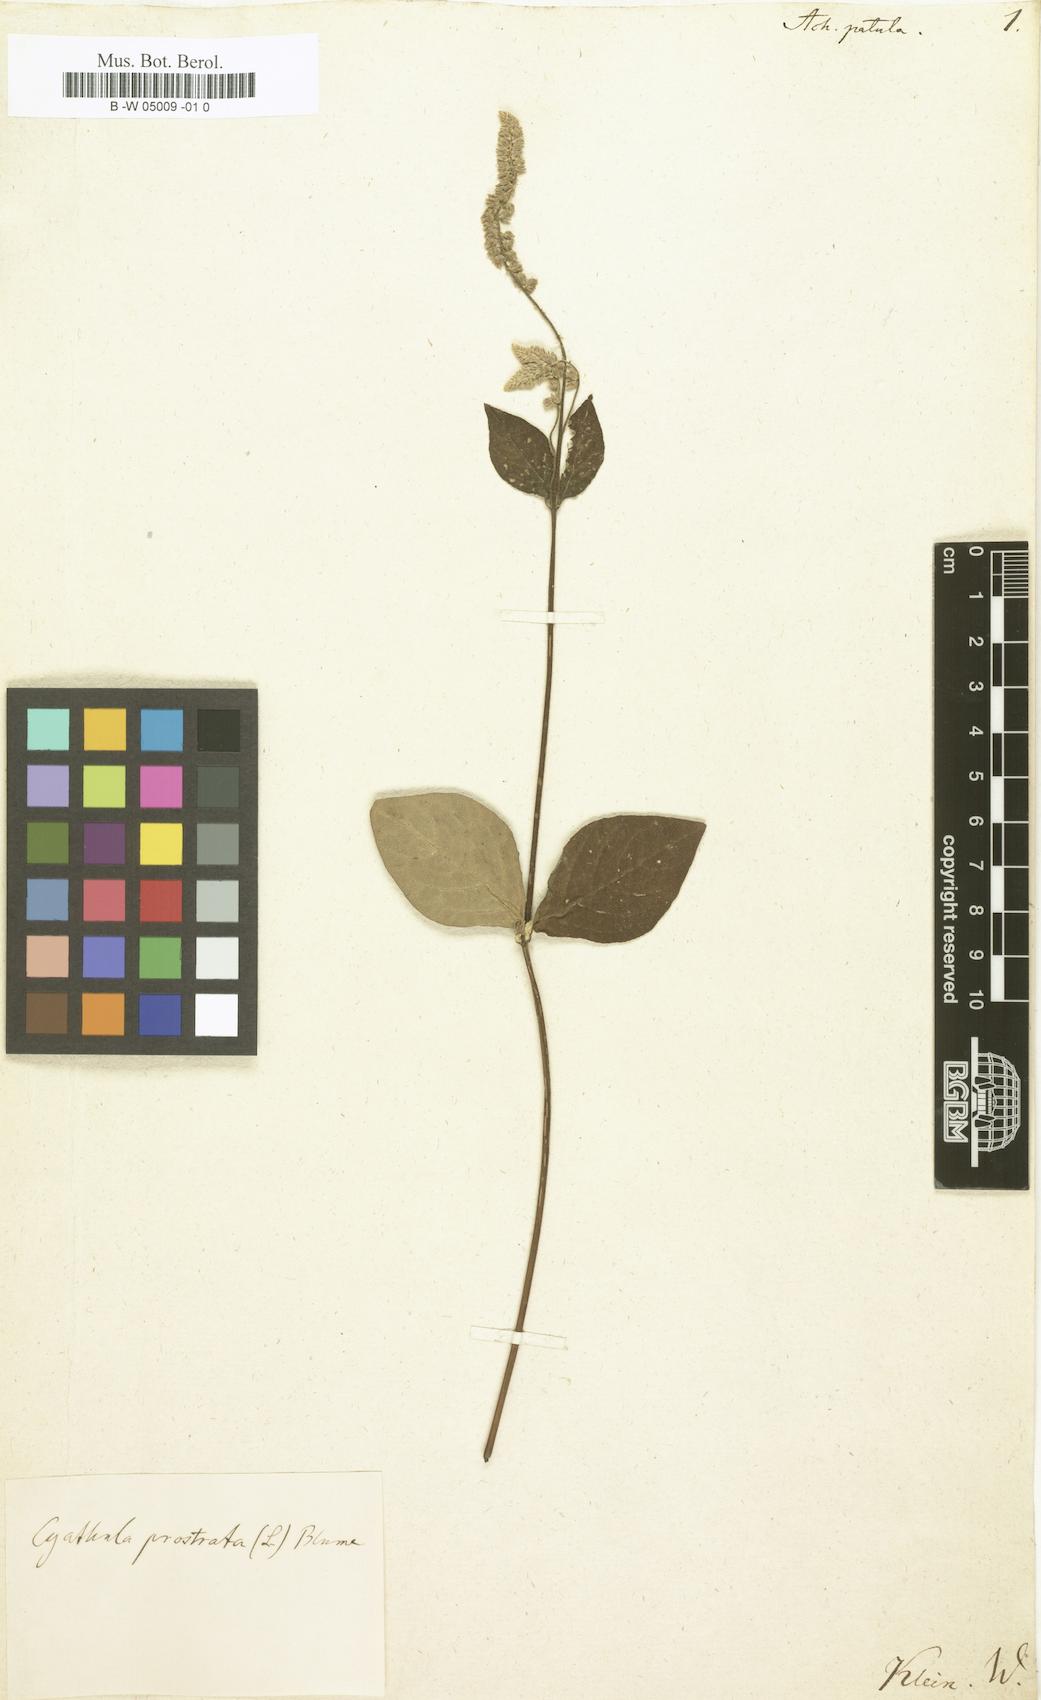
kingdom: Plantae
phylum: Tracheophyta
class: Magnoliopsida
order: Caryophyllales
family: Amaranthaceae
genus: Pupalia
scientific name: Pupalia lappacea
